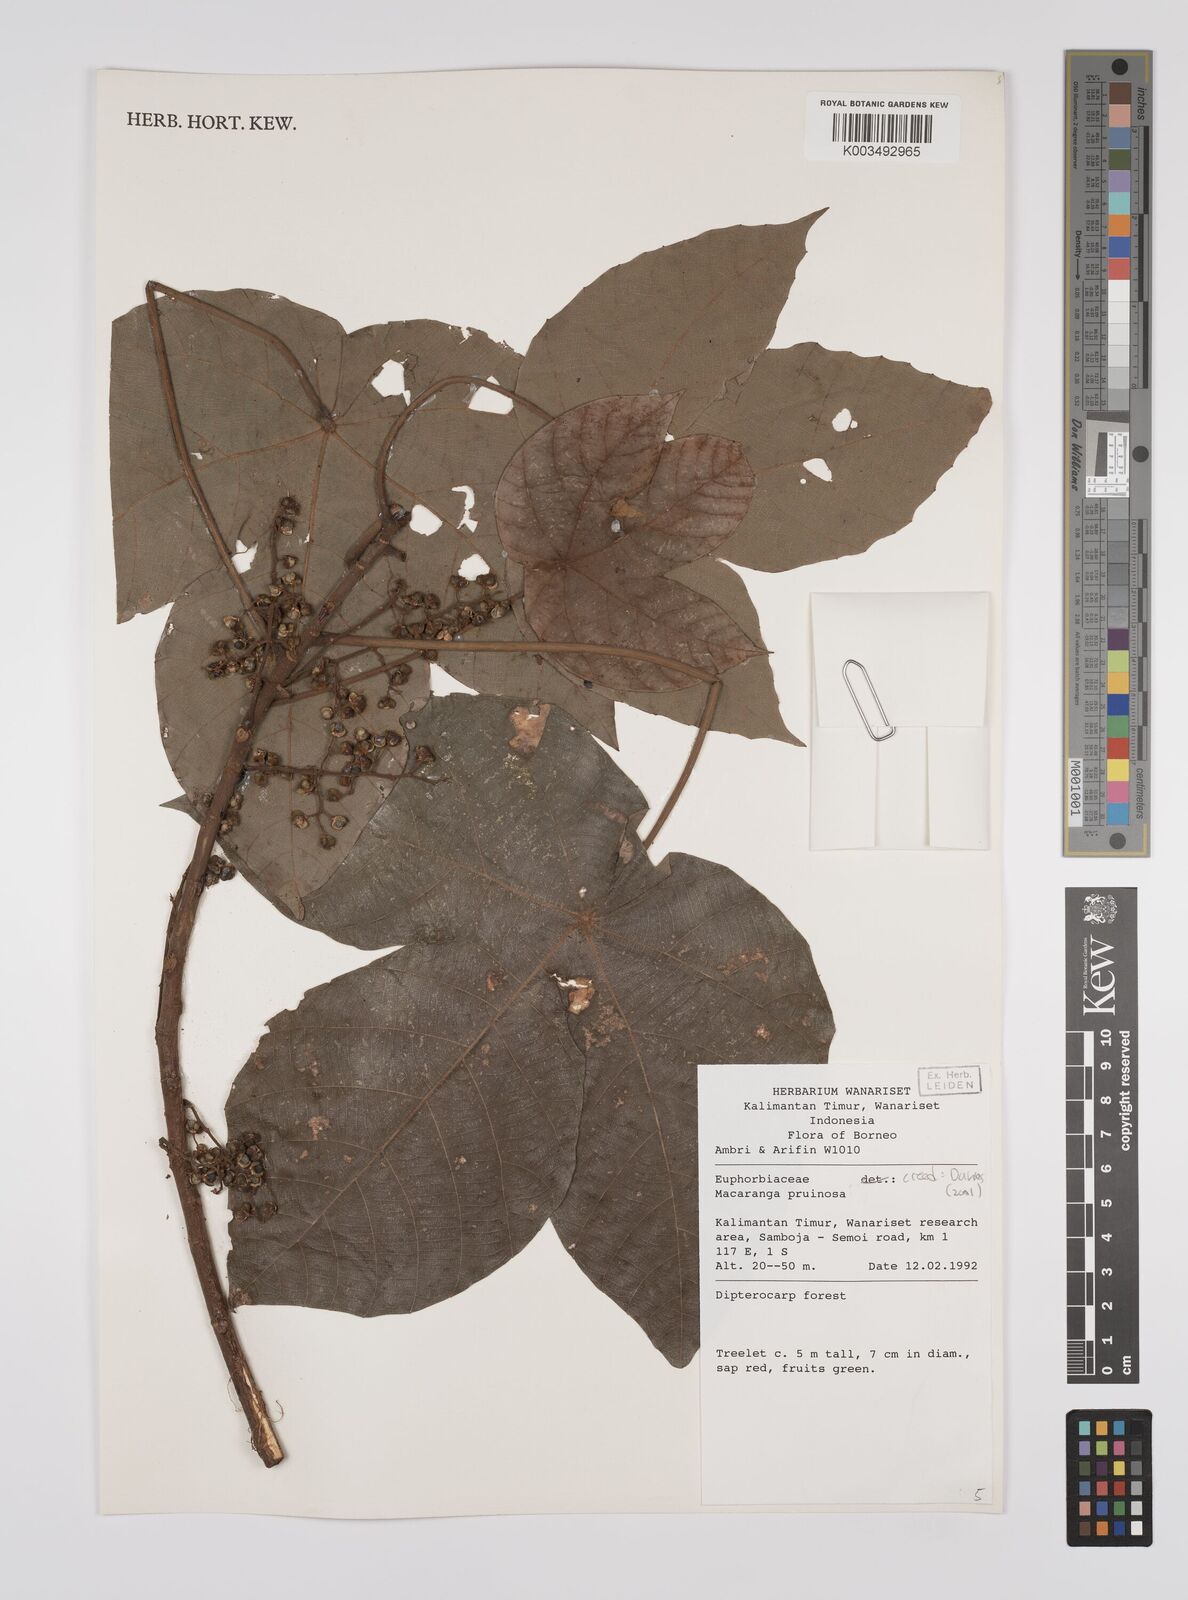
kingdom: Plantae
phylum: Tracheophyta
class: Magnoliopsida
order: Malpighiales
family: Euphorbiaceae
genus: Macaranga
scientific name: Macaranga pruinosa
